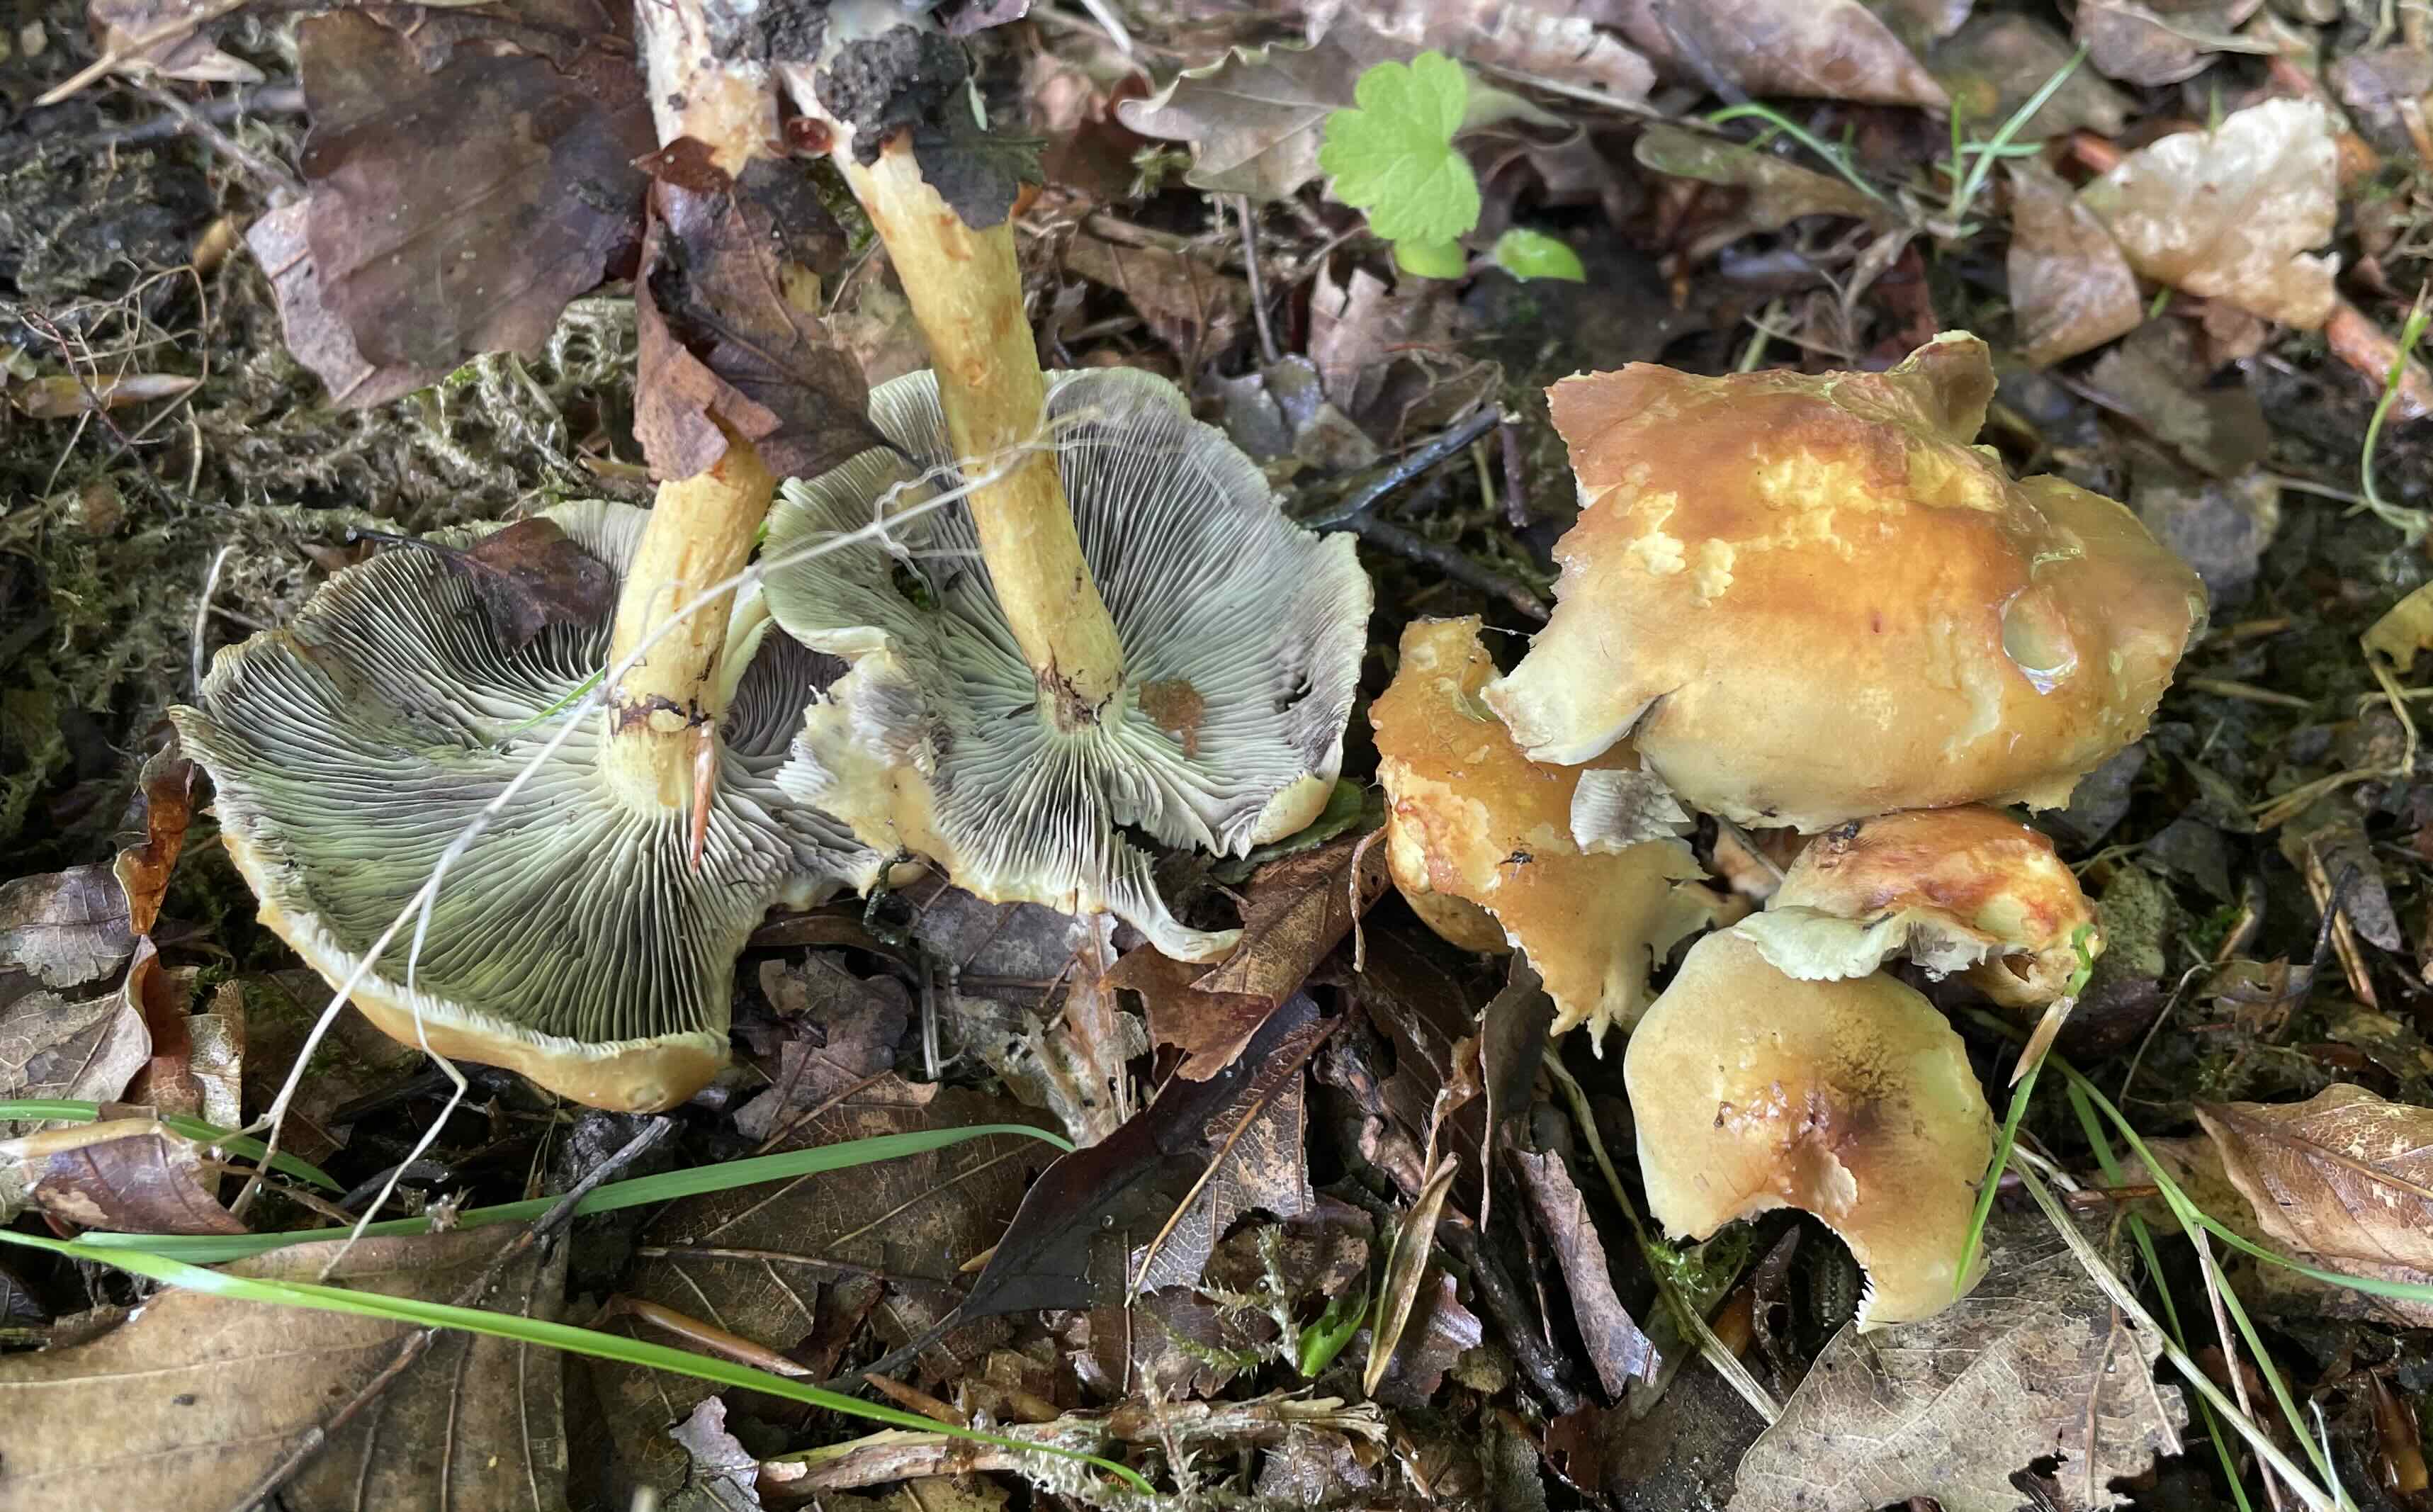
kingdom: Fungi
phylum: Basidiomycota
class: Agaricomycetes
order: Agaricales
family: Strophariaceae
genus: Hypholoma
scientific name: Hypholoma fasciculare
